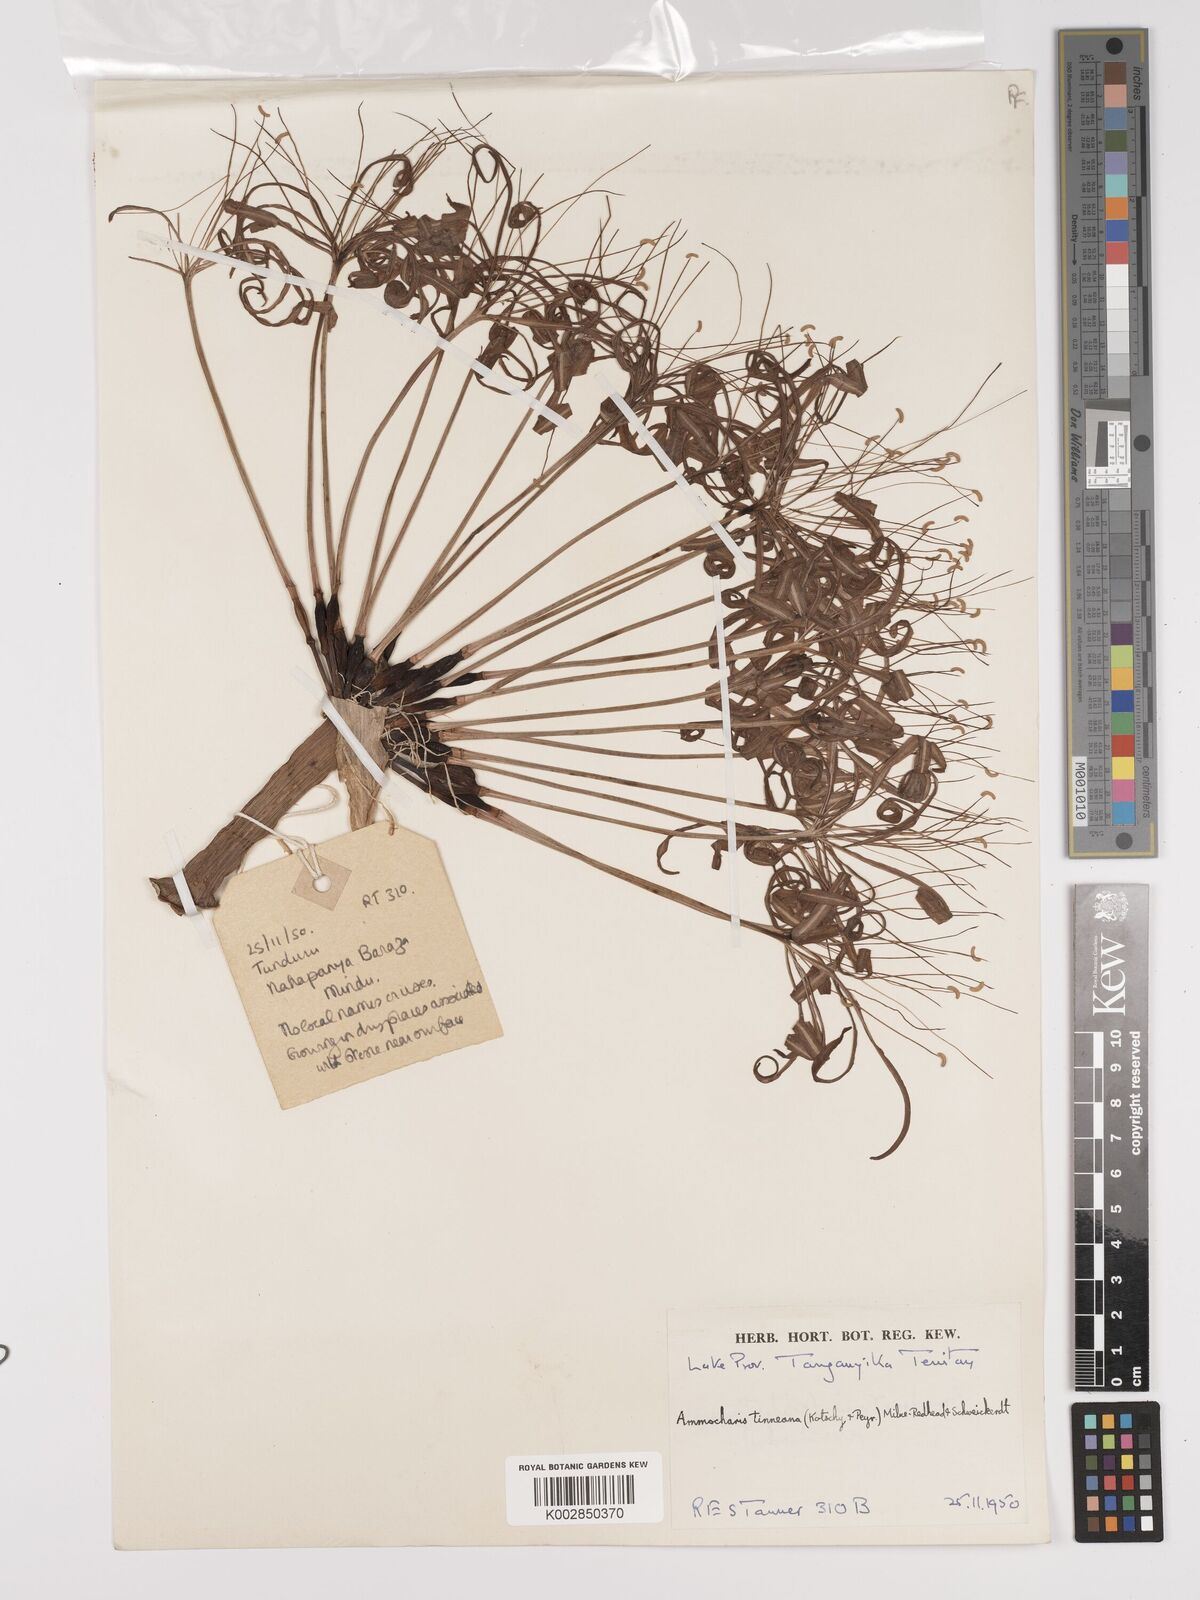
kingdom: Plantae
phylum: Tracheophyta
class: Liliopsida
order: Asparagales
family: Amaryllidaceae
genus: Ammocharis
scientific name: Ammocharis tinneana
